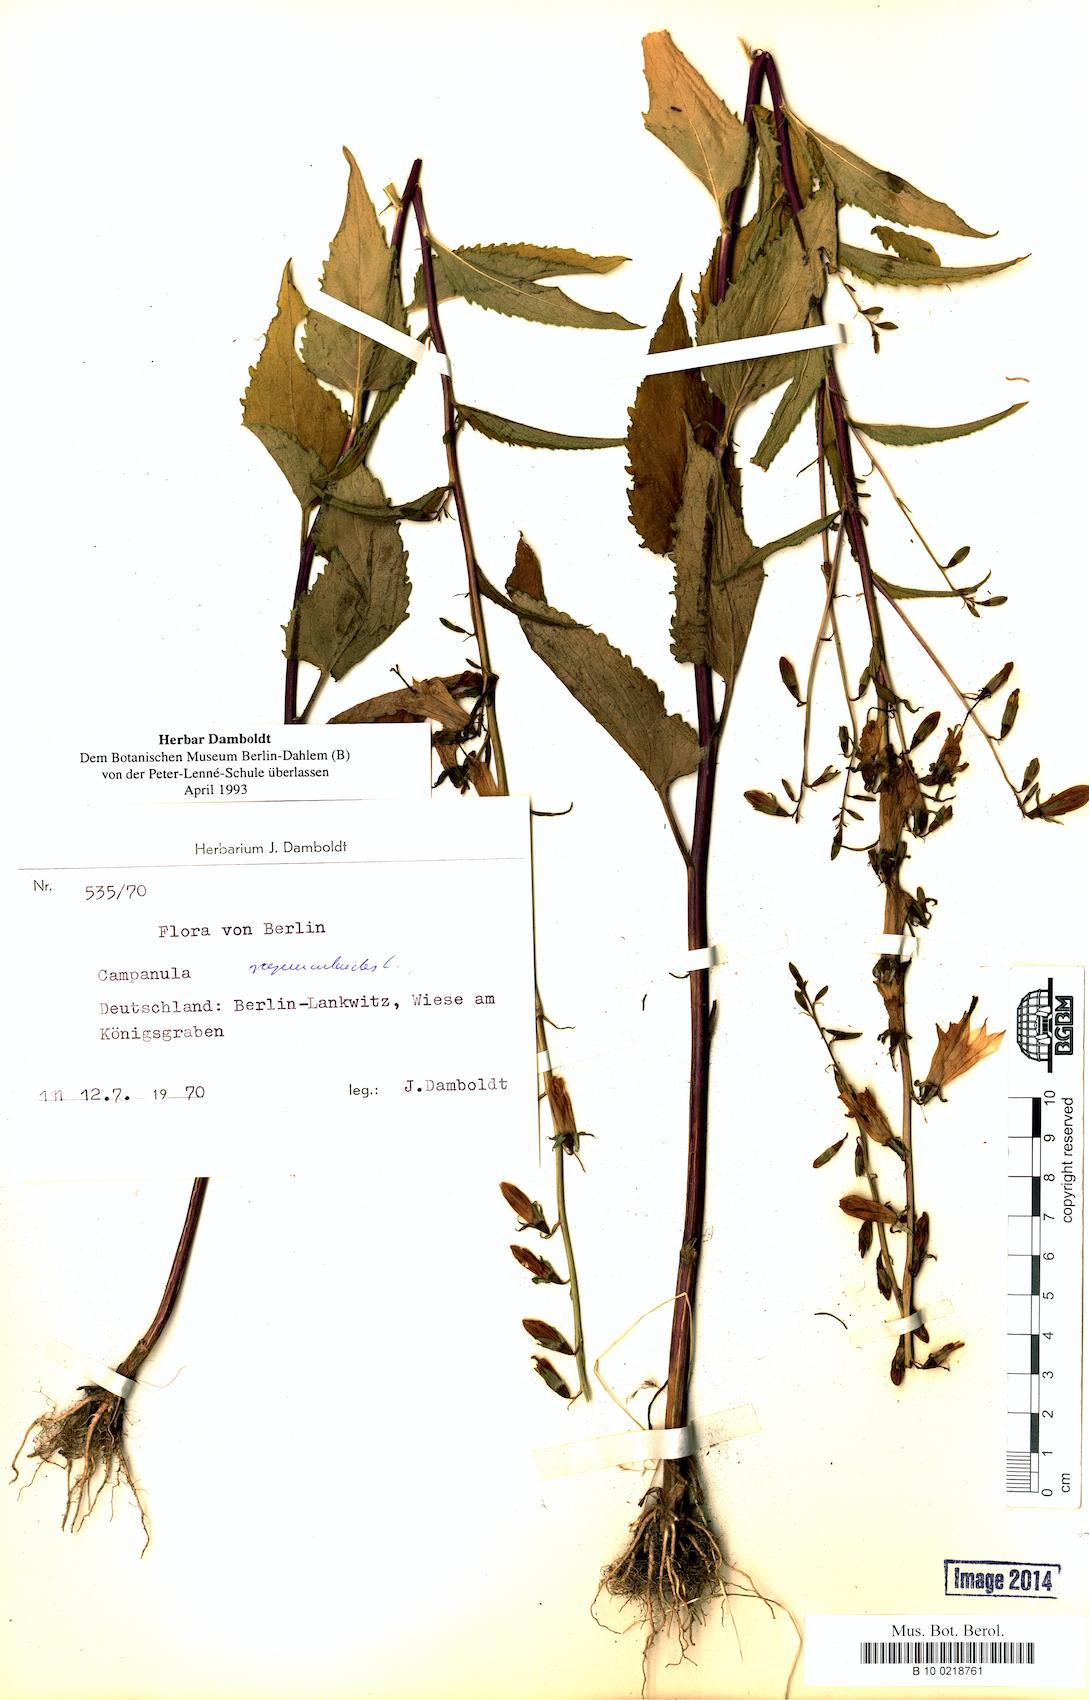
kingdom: Plantae
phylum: Tracheophyta
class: Magnoliopsida
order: Asterales
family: Campanulaceae
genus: Campanula
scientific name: Campanula rapunculoides
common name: Creeping bellflower
